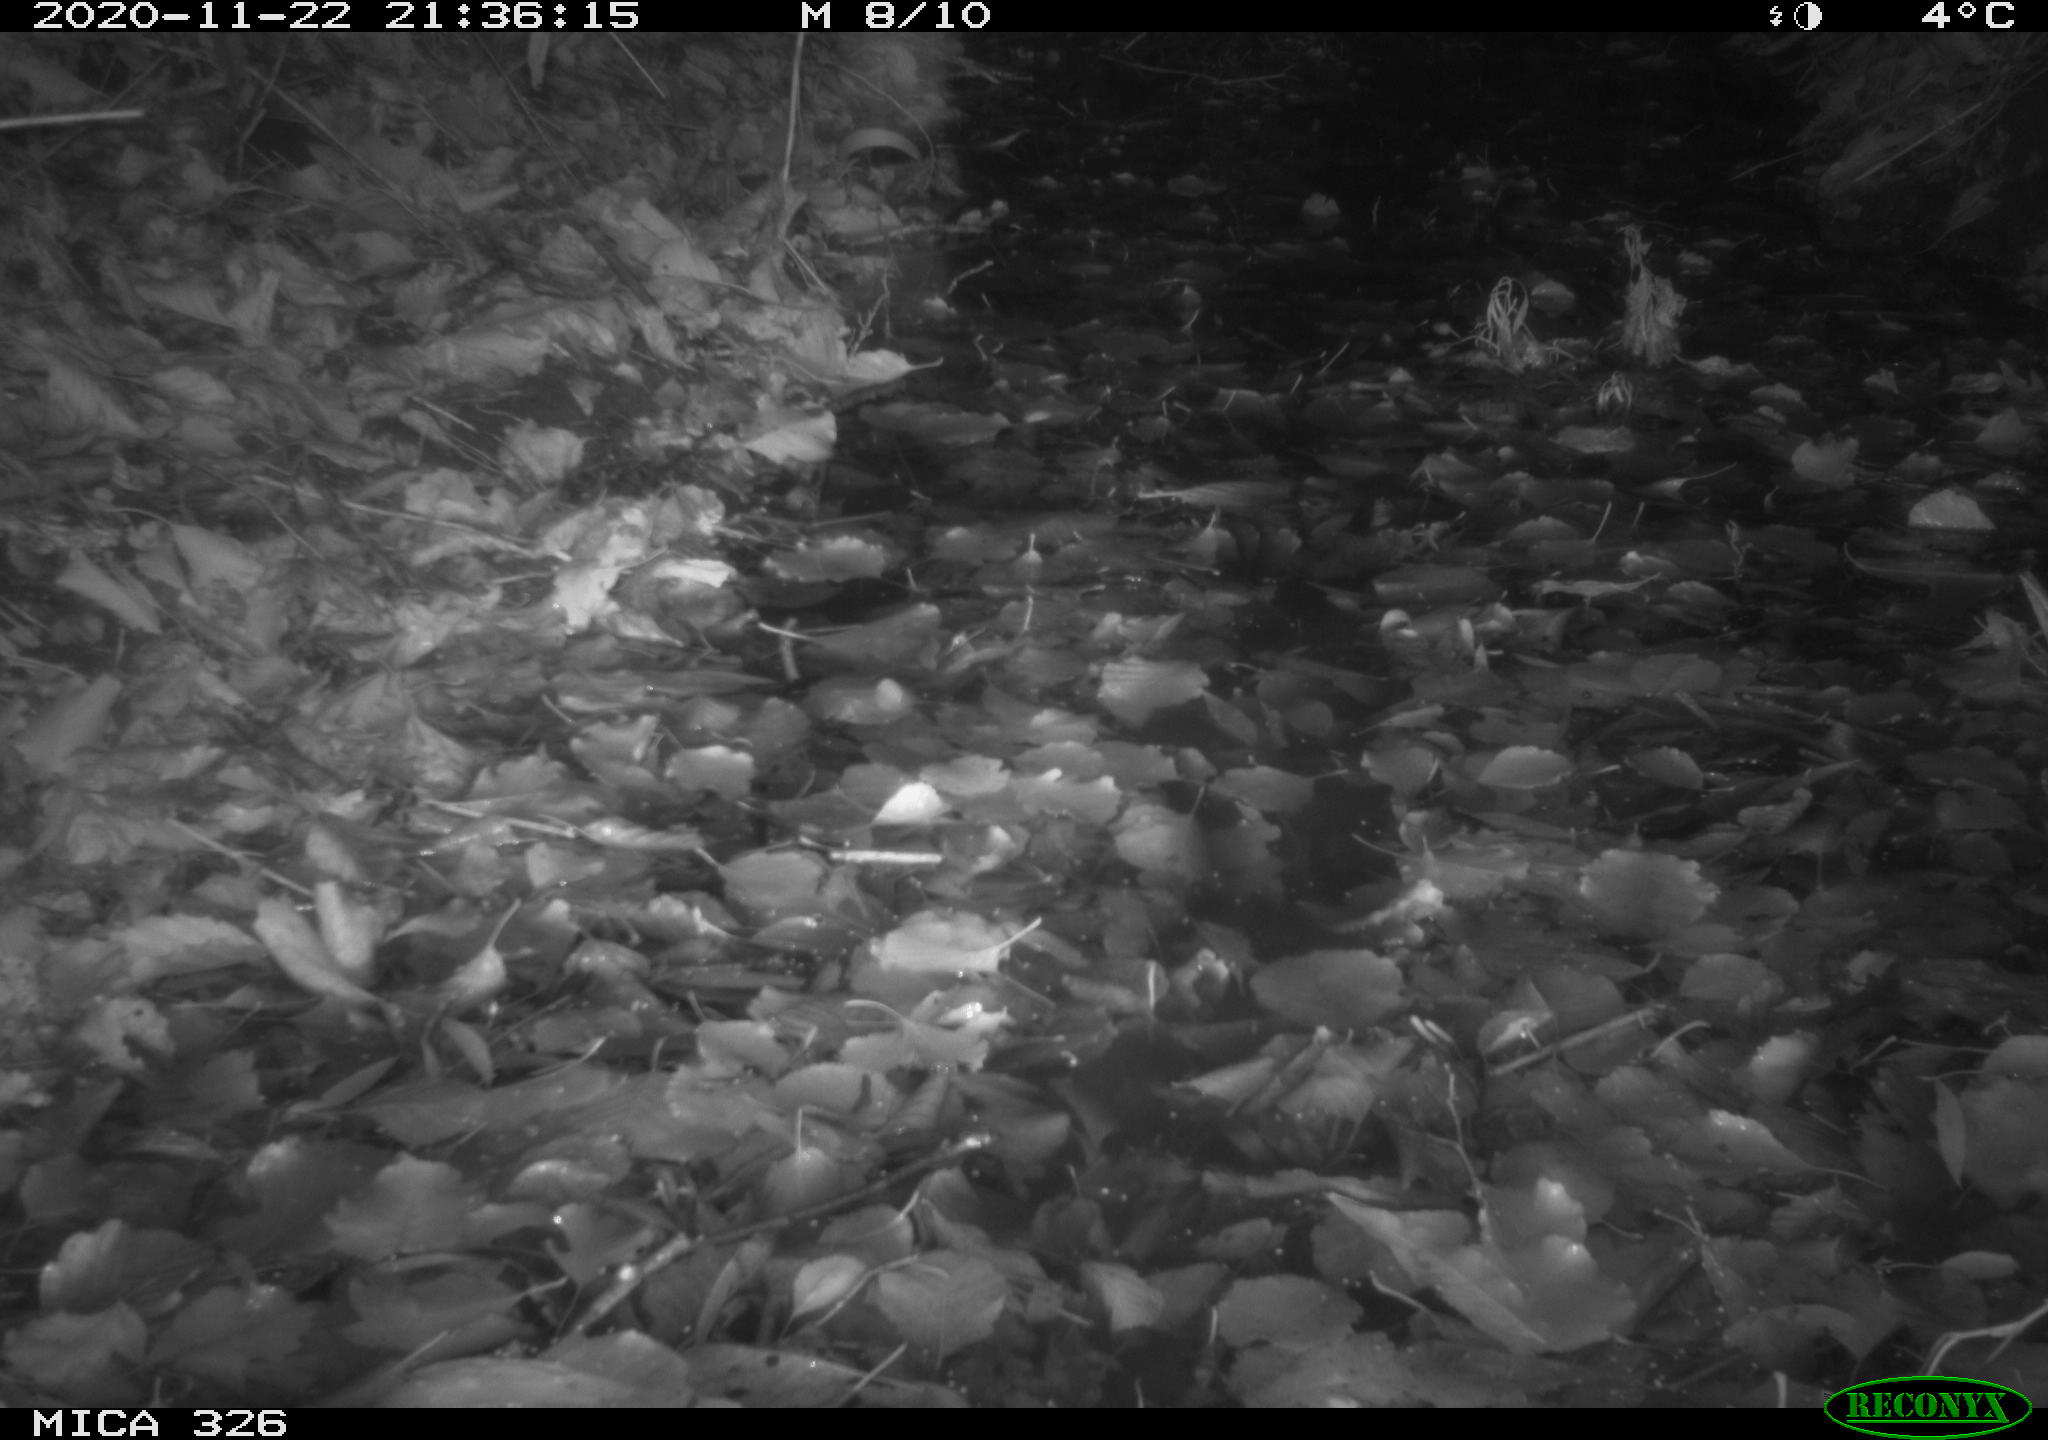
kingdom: Animalia
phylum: Chordata
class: Mammalia
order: Carnivora
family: Mustelidae
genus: Lutra
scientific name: Lutra lutra
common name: European otter
